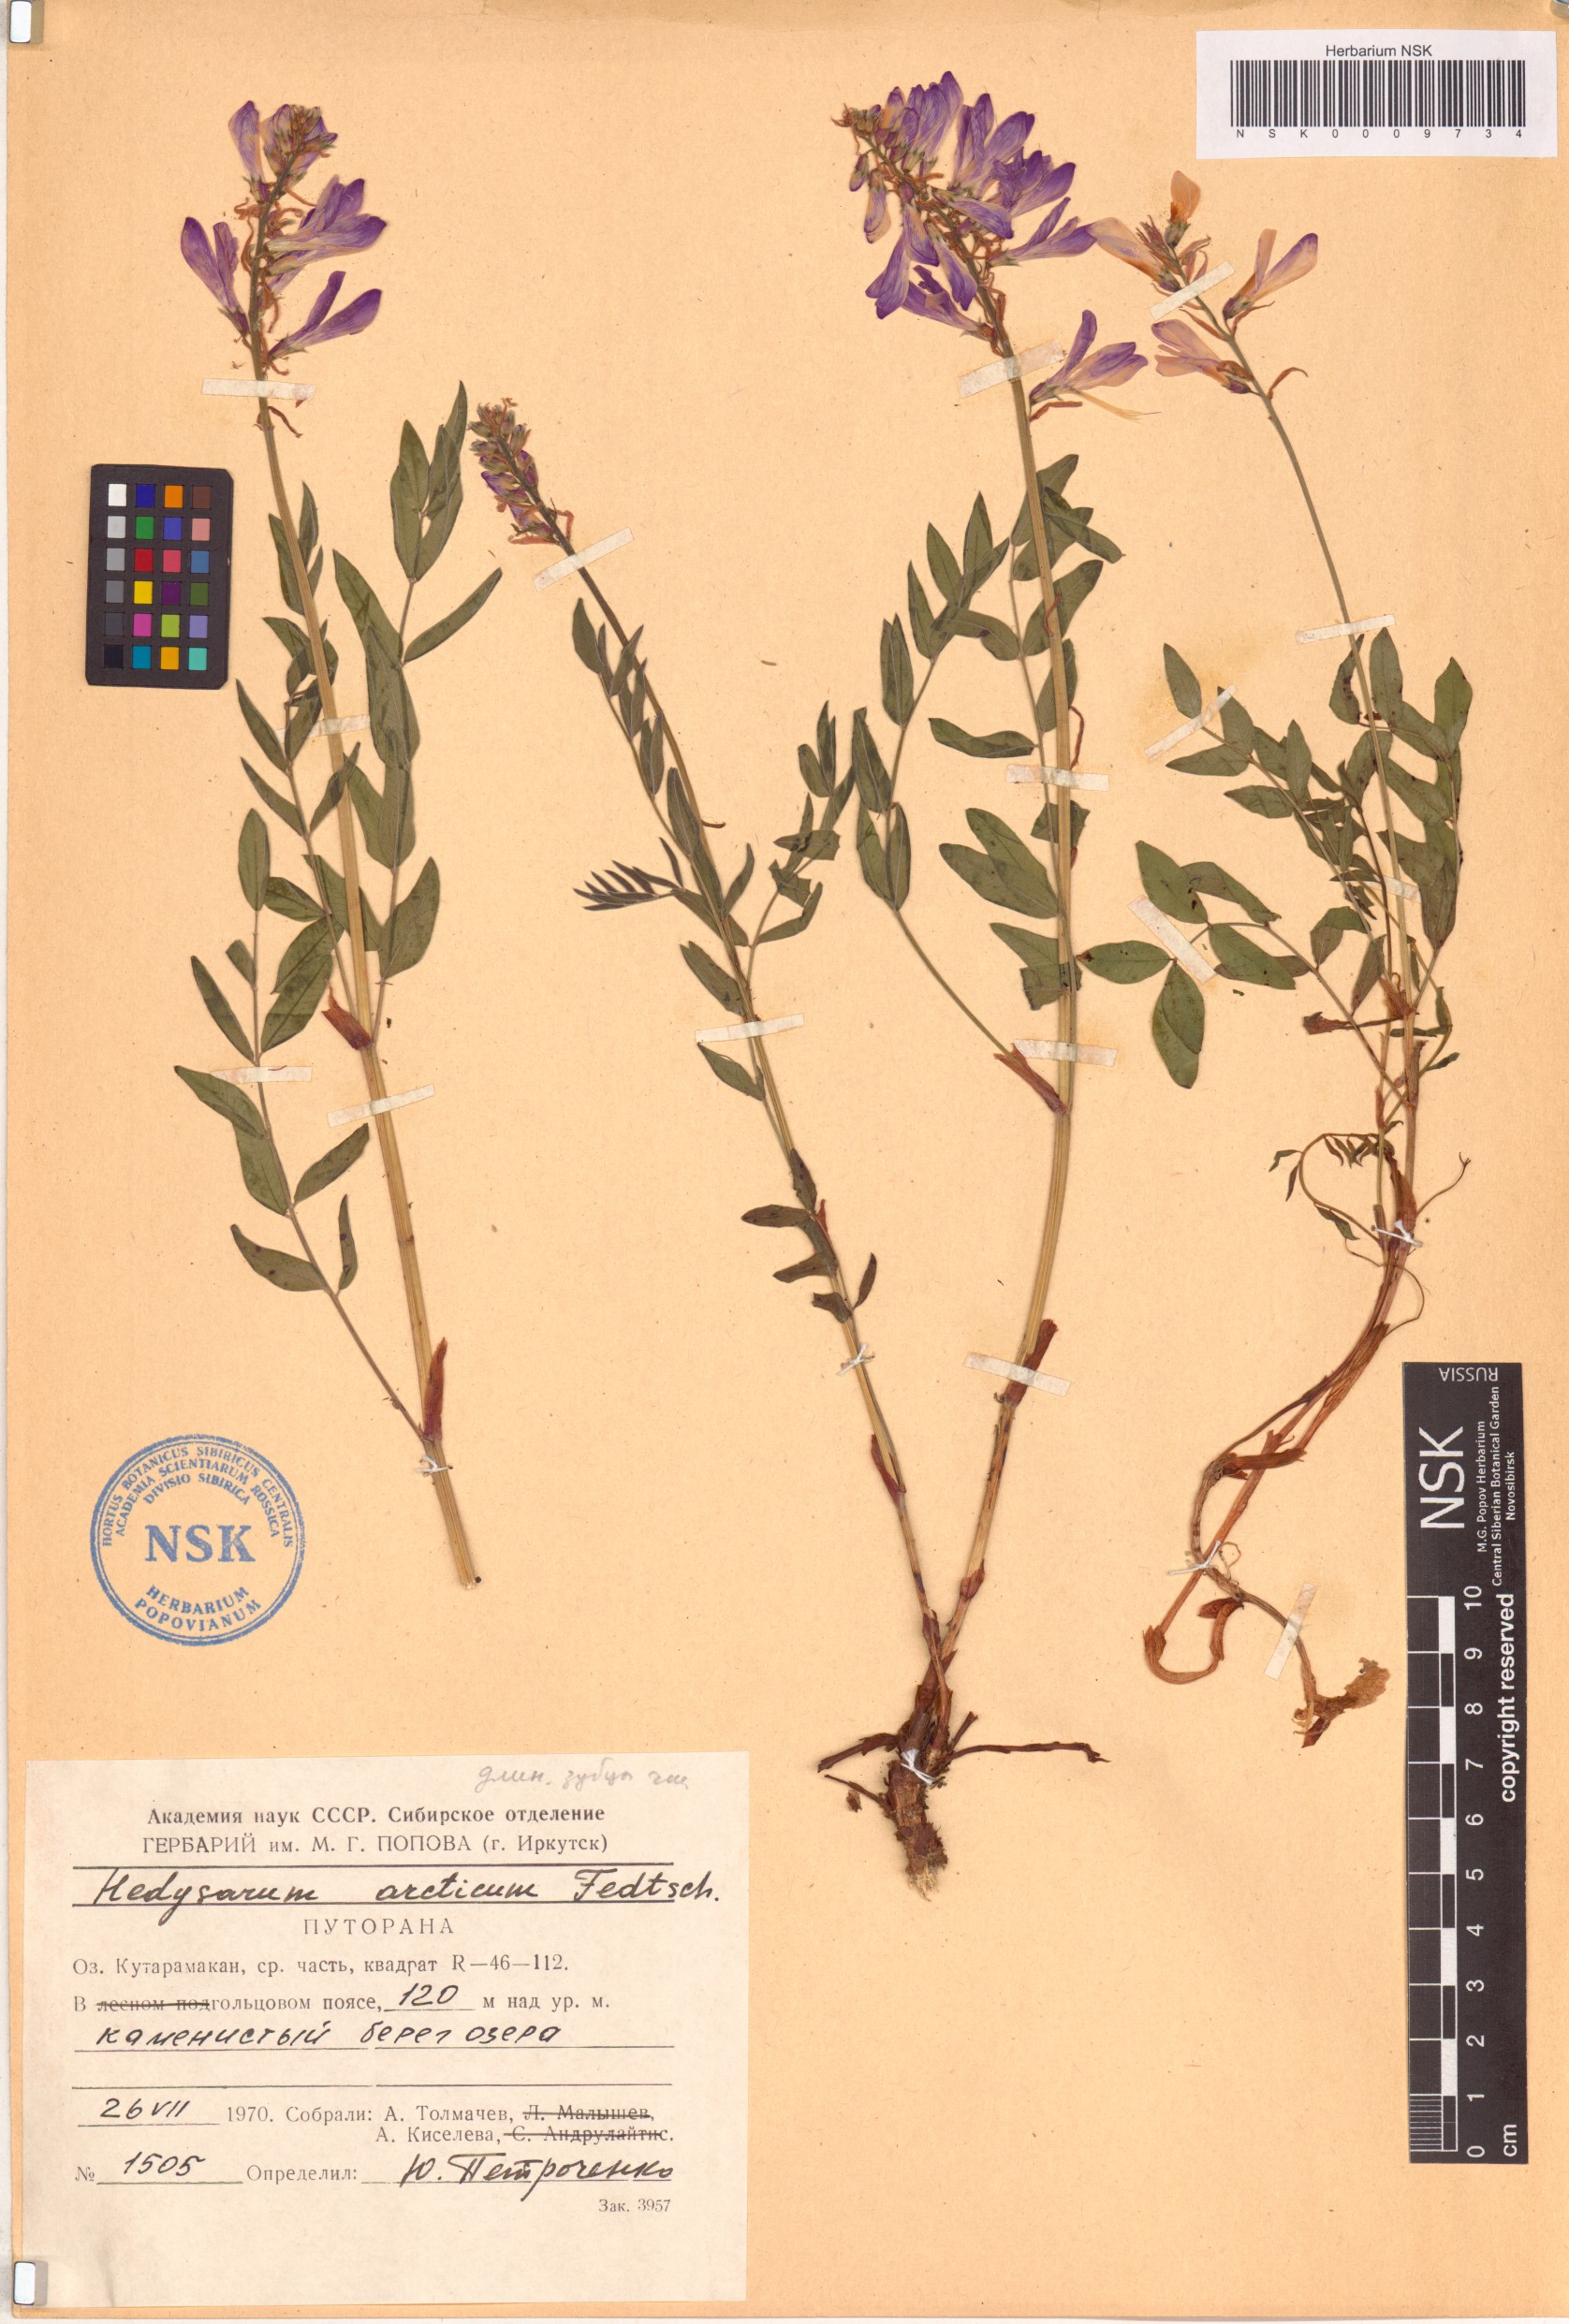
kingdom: Plantae
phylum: Tracheophyta
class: Magnoliopsida
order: Fabales
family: Fabaceae
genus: Hedysarum
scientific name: Hedysarum hedysaroides
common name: Alpine french-honeysuckle
